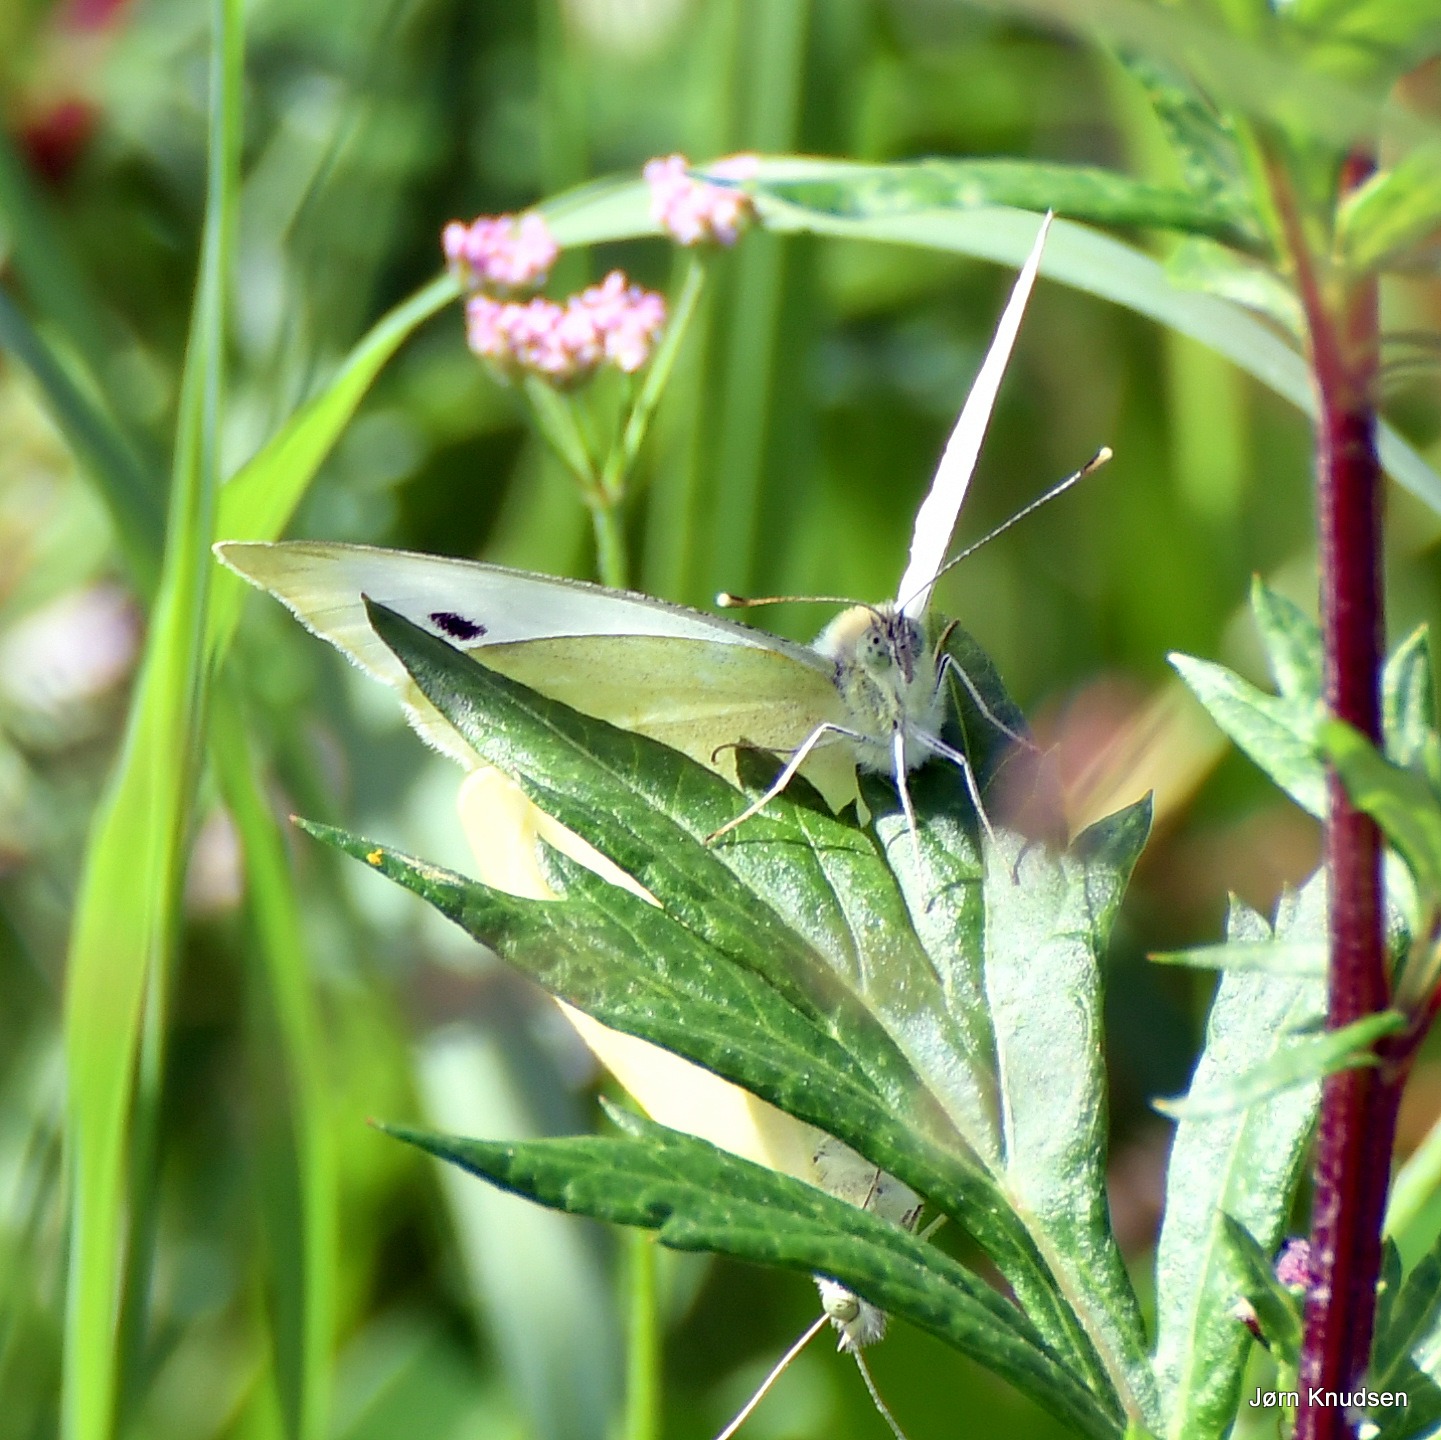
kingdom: Animalia
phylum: Arthropoda
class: Insecta
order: Lepidoptera
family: Pieridae
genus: Pieris
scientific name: Pieris brassicae
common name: Stor kålsommerfugl
